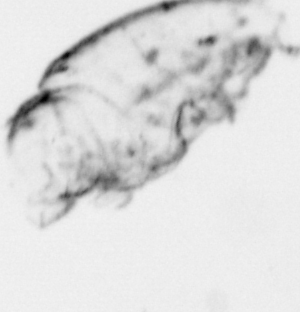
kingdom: Animalia
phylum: Arthropoda
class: Maxillopoda
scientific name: Maxillopoda
